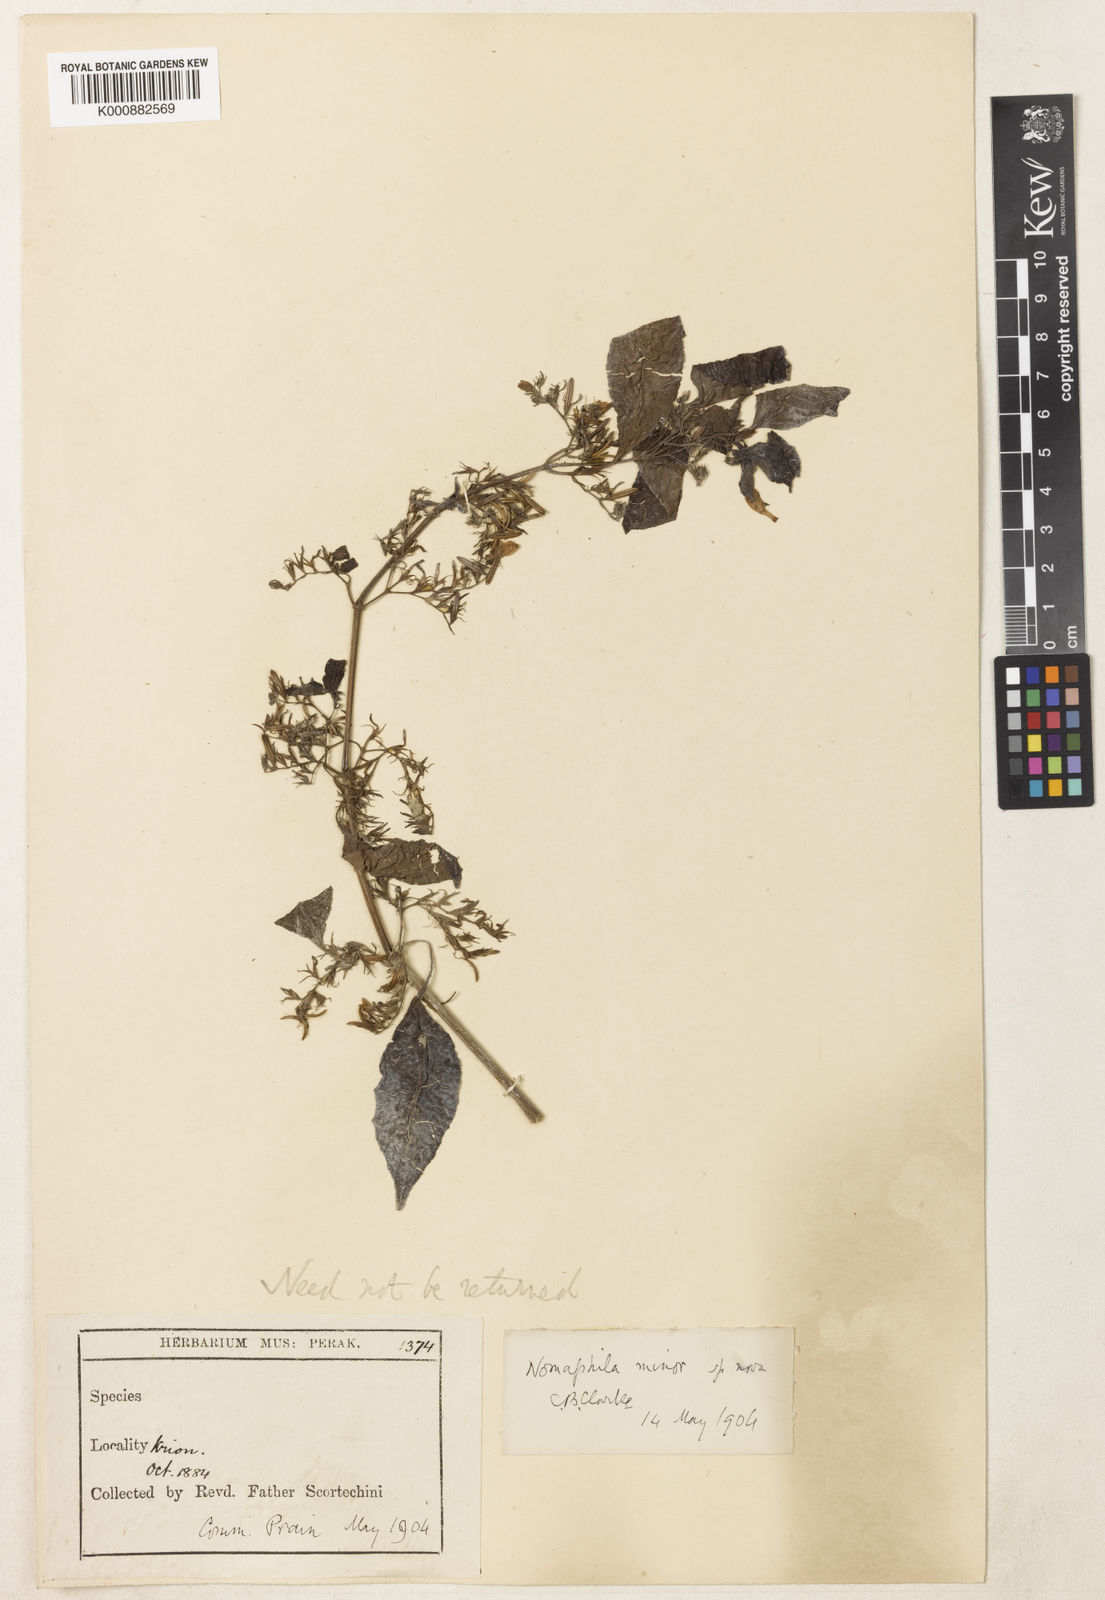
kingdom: Plantae
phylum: Tracheophyta
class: Magnoliopsida
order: Lamiales
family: Acanthaceae
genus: Hygrophila
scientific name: Hygrophila corymbosa
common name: Starhorn
